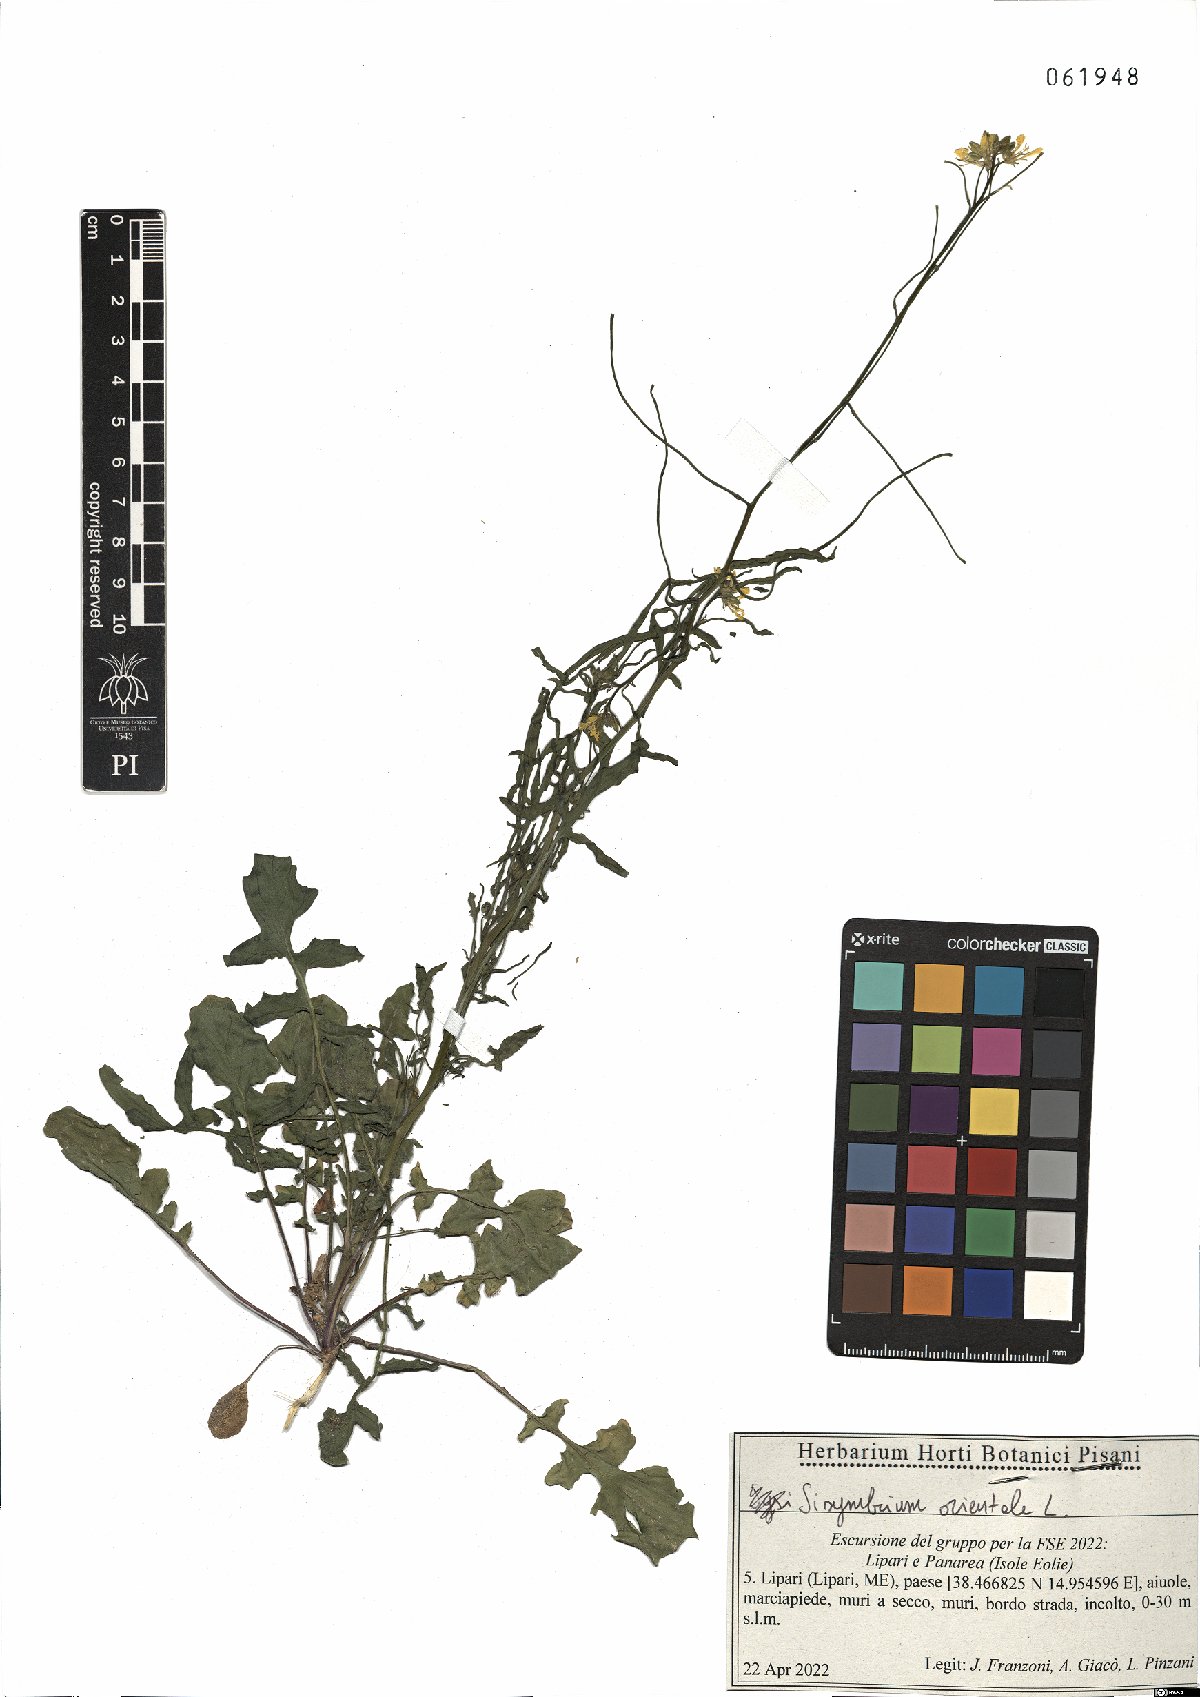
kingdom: Plantae
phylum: Tracheophyta
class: Magnoliopsida
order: Brassicales
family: Brassicaceae
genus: Sisymbrium
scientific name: Sisymbrium orientale
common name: Eastern rocket
